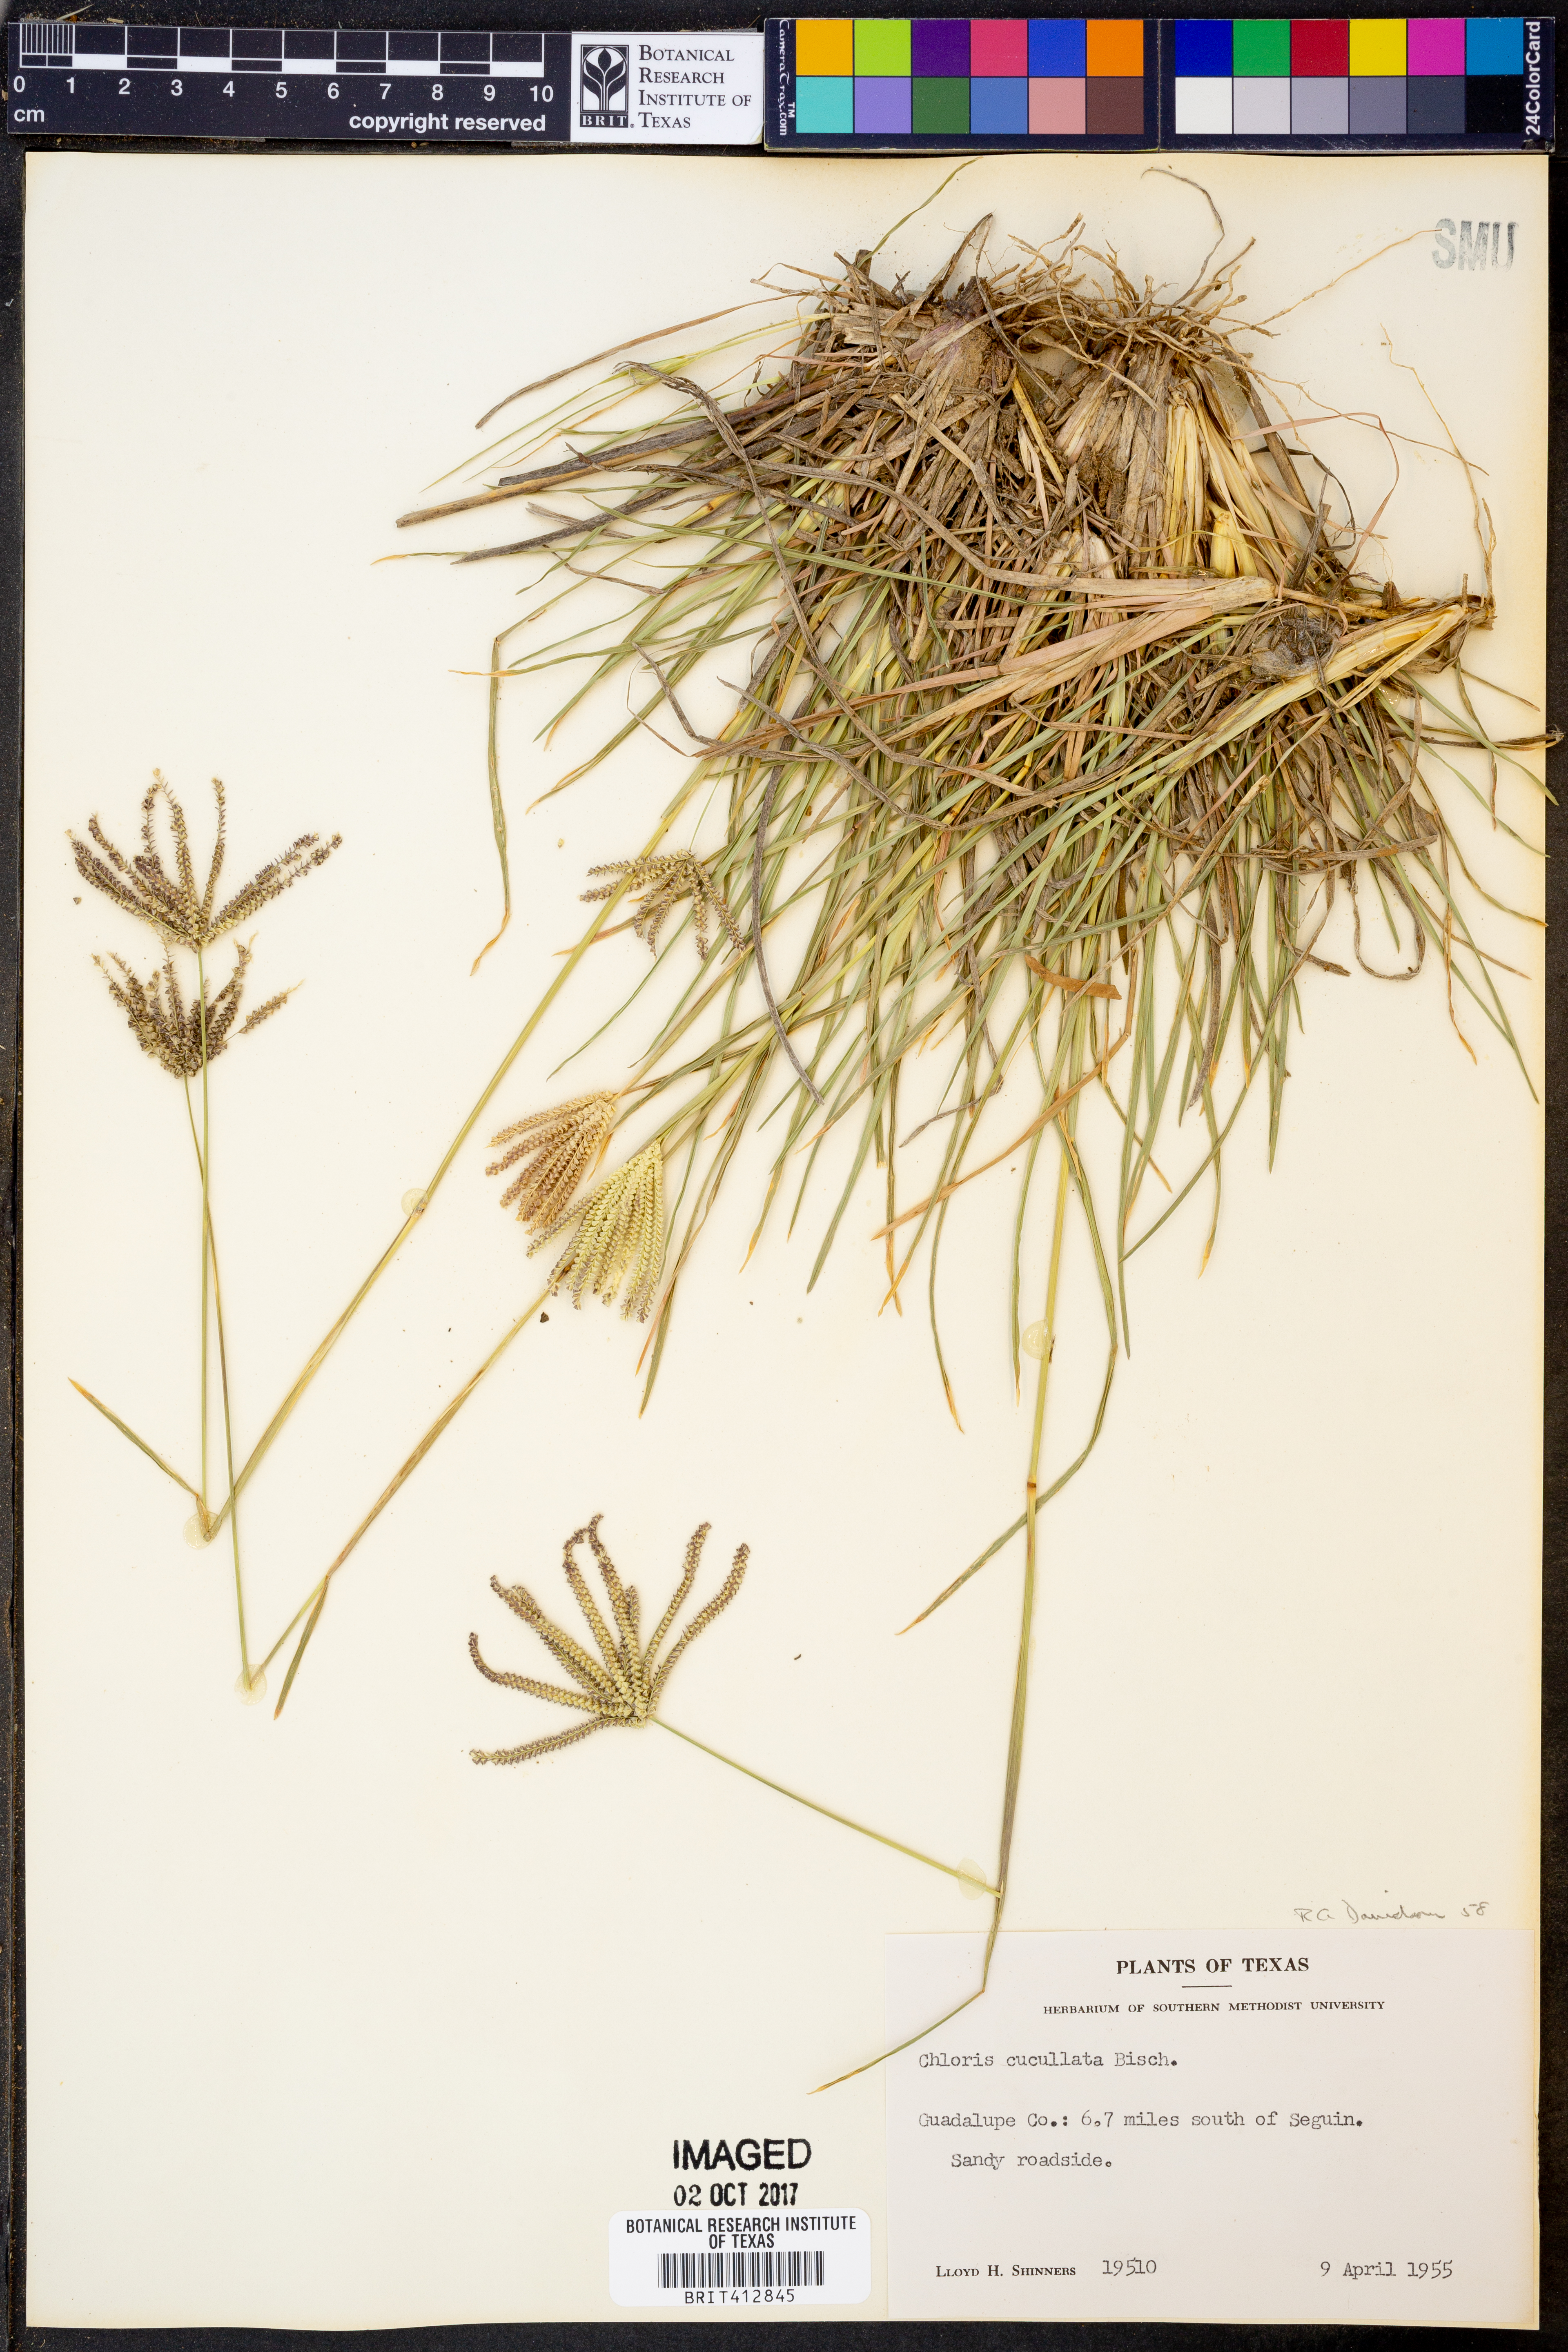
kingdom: Plantae
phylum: Tracheophyta
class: Liliopsida
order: Poales
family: Poaceae
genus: Chloris
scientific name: Chloris cucullata
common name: Hooded windmill grass
